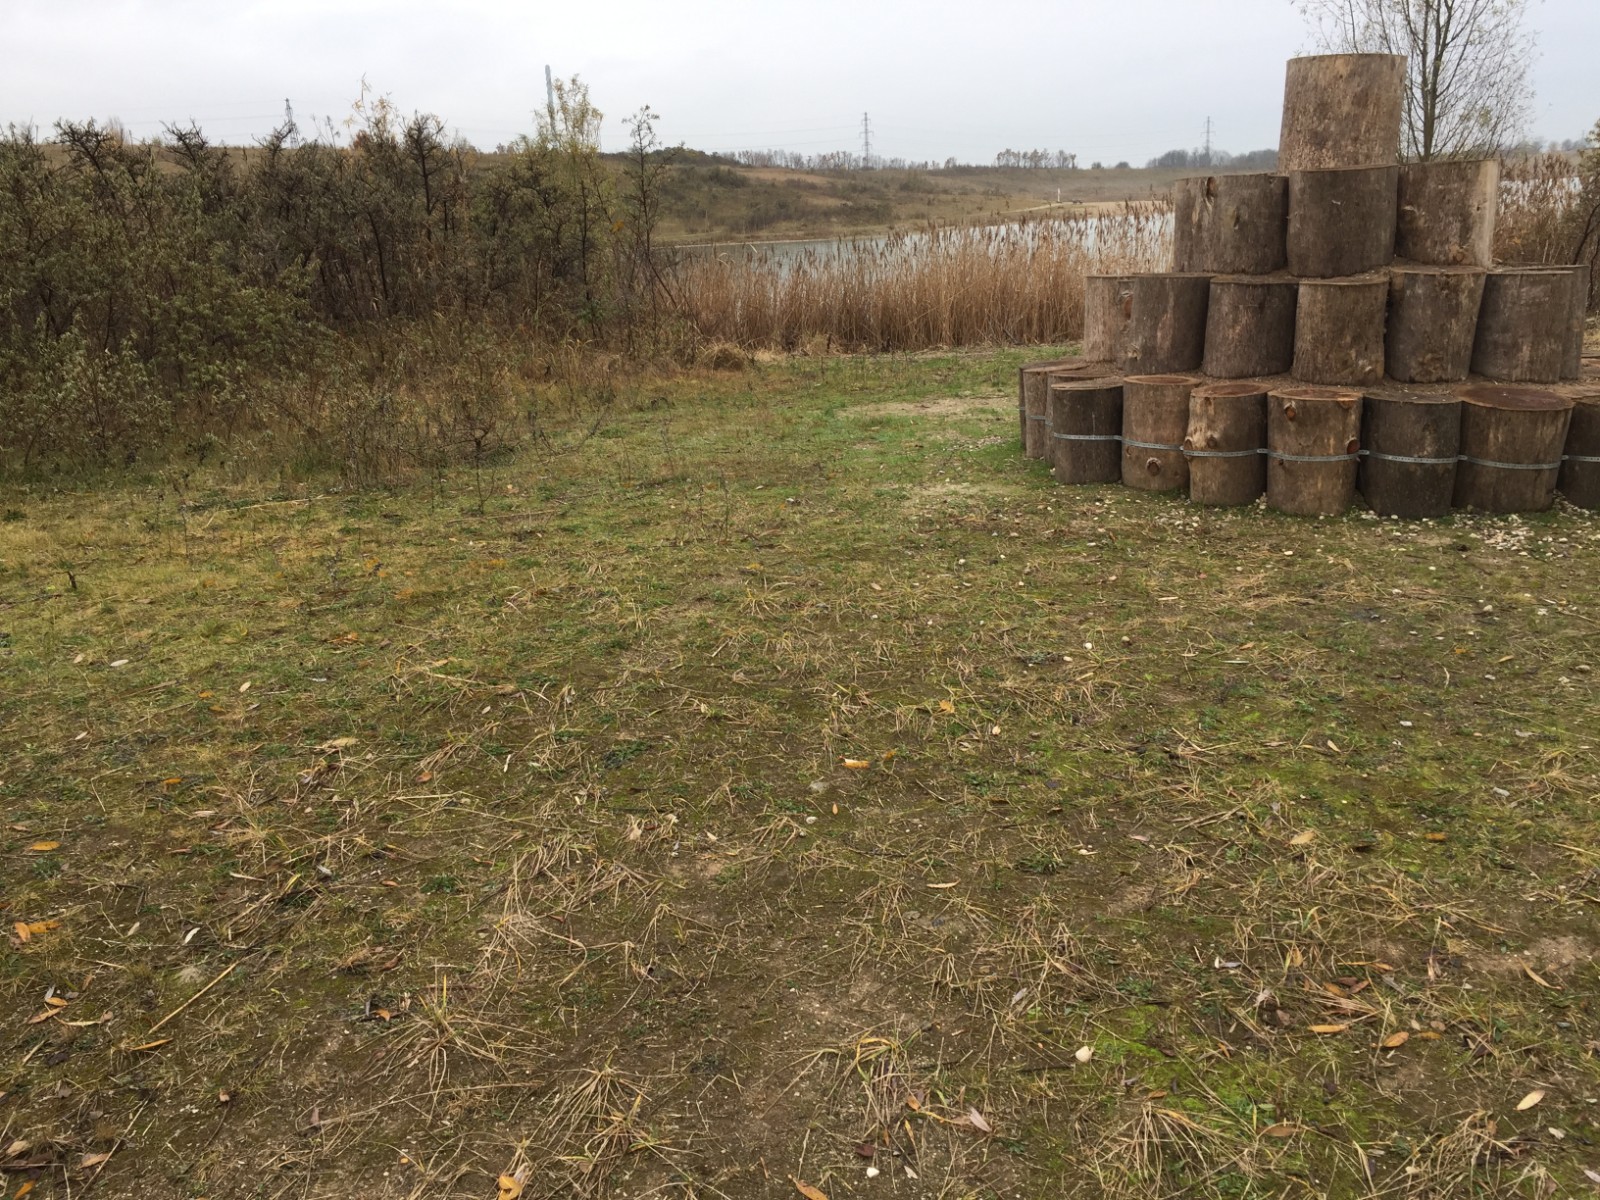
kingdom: Fungi
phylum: Ascomycota
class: Lecanoromycetes
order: Peltigerales
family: Collemataceae
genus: Blennothallia
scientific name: Blennothallia crispa
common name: kruset bævrelav
